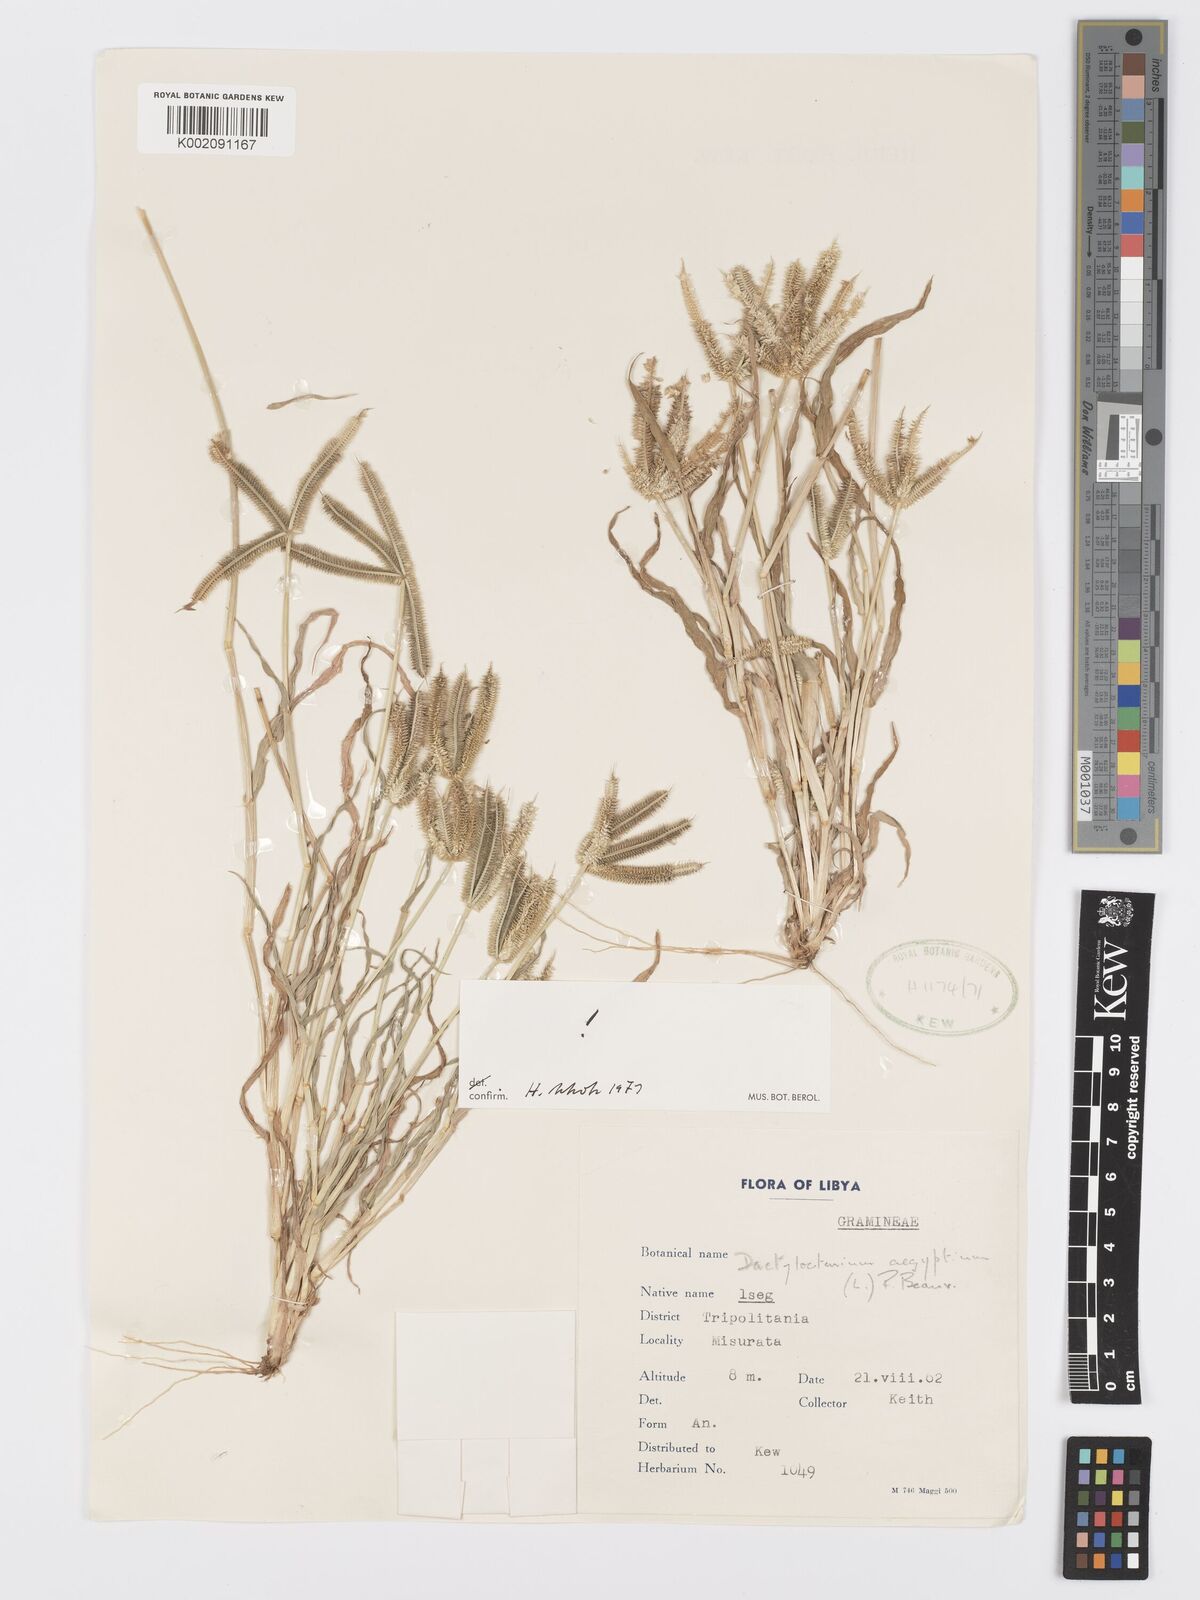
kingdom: Plantae
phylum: Tracheophyta
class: Liliopsida
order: Poales
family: Poaceae
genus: Dactyloctenium
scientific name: Dactyloctenium aegyptium
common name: Egyptian grass
